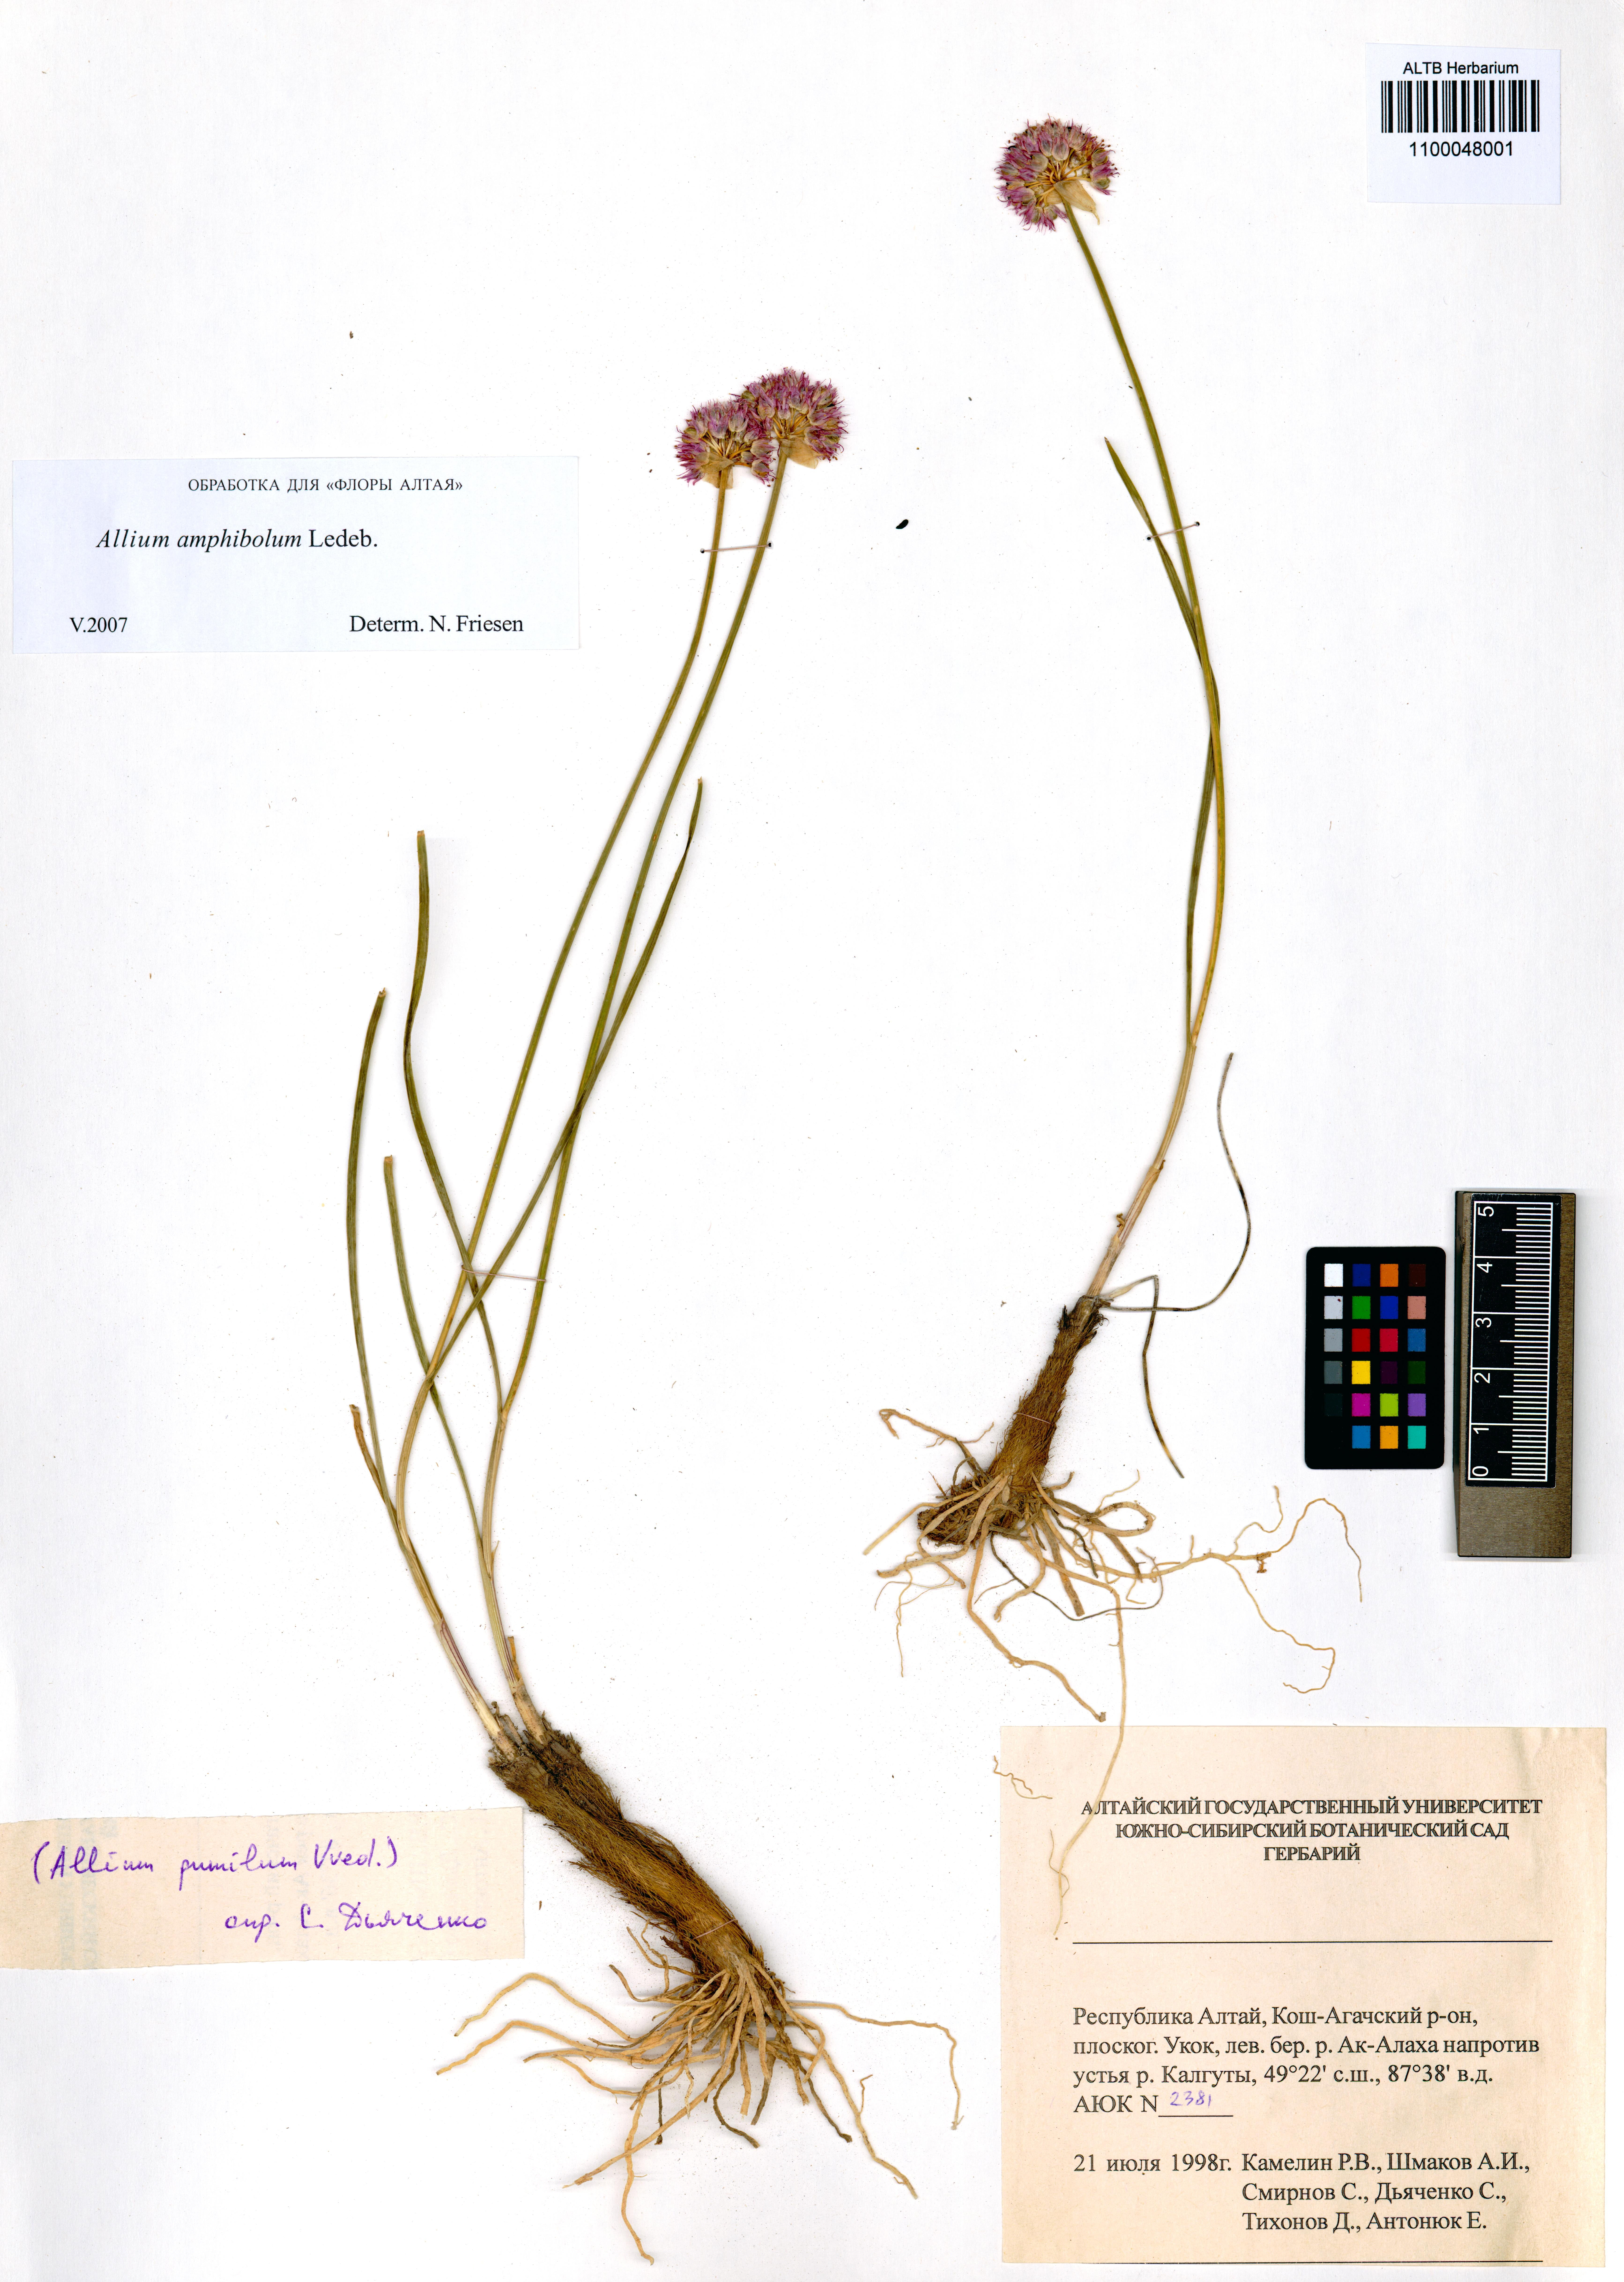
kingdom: Plantae
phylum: Tracheophyta
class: Liliopsida
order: Asparagales
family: Amaryllidaceae
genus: Allium
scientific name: Allium amphibolum
